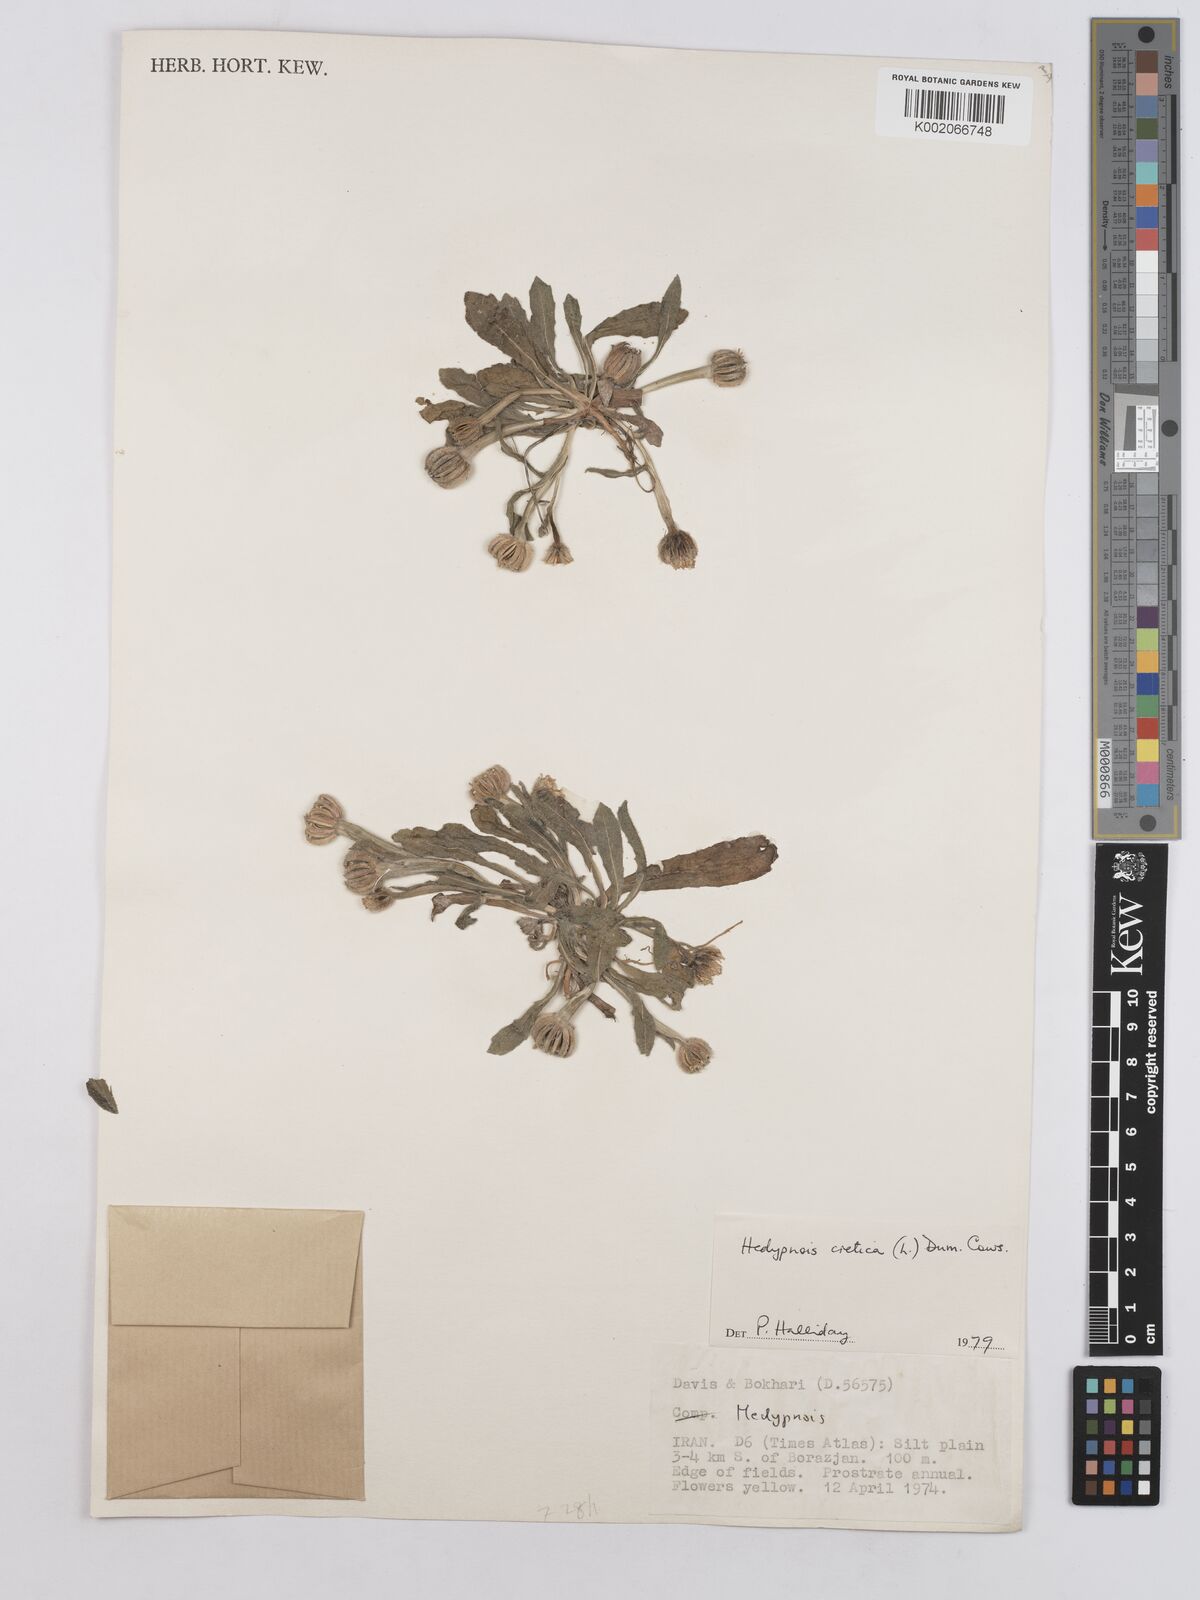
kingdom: Plantae
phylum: Tracheophyta
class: Magnoliopsida
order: Asterales
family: Asteraceae
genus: Hedypnois
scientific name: Hedypnois cretica
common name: Scaly hawkbit
